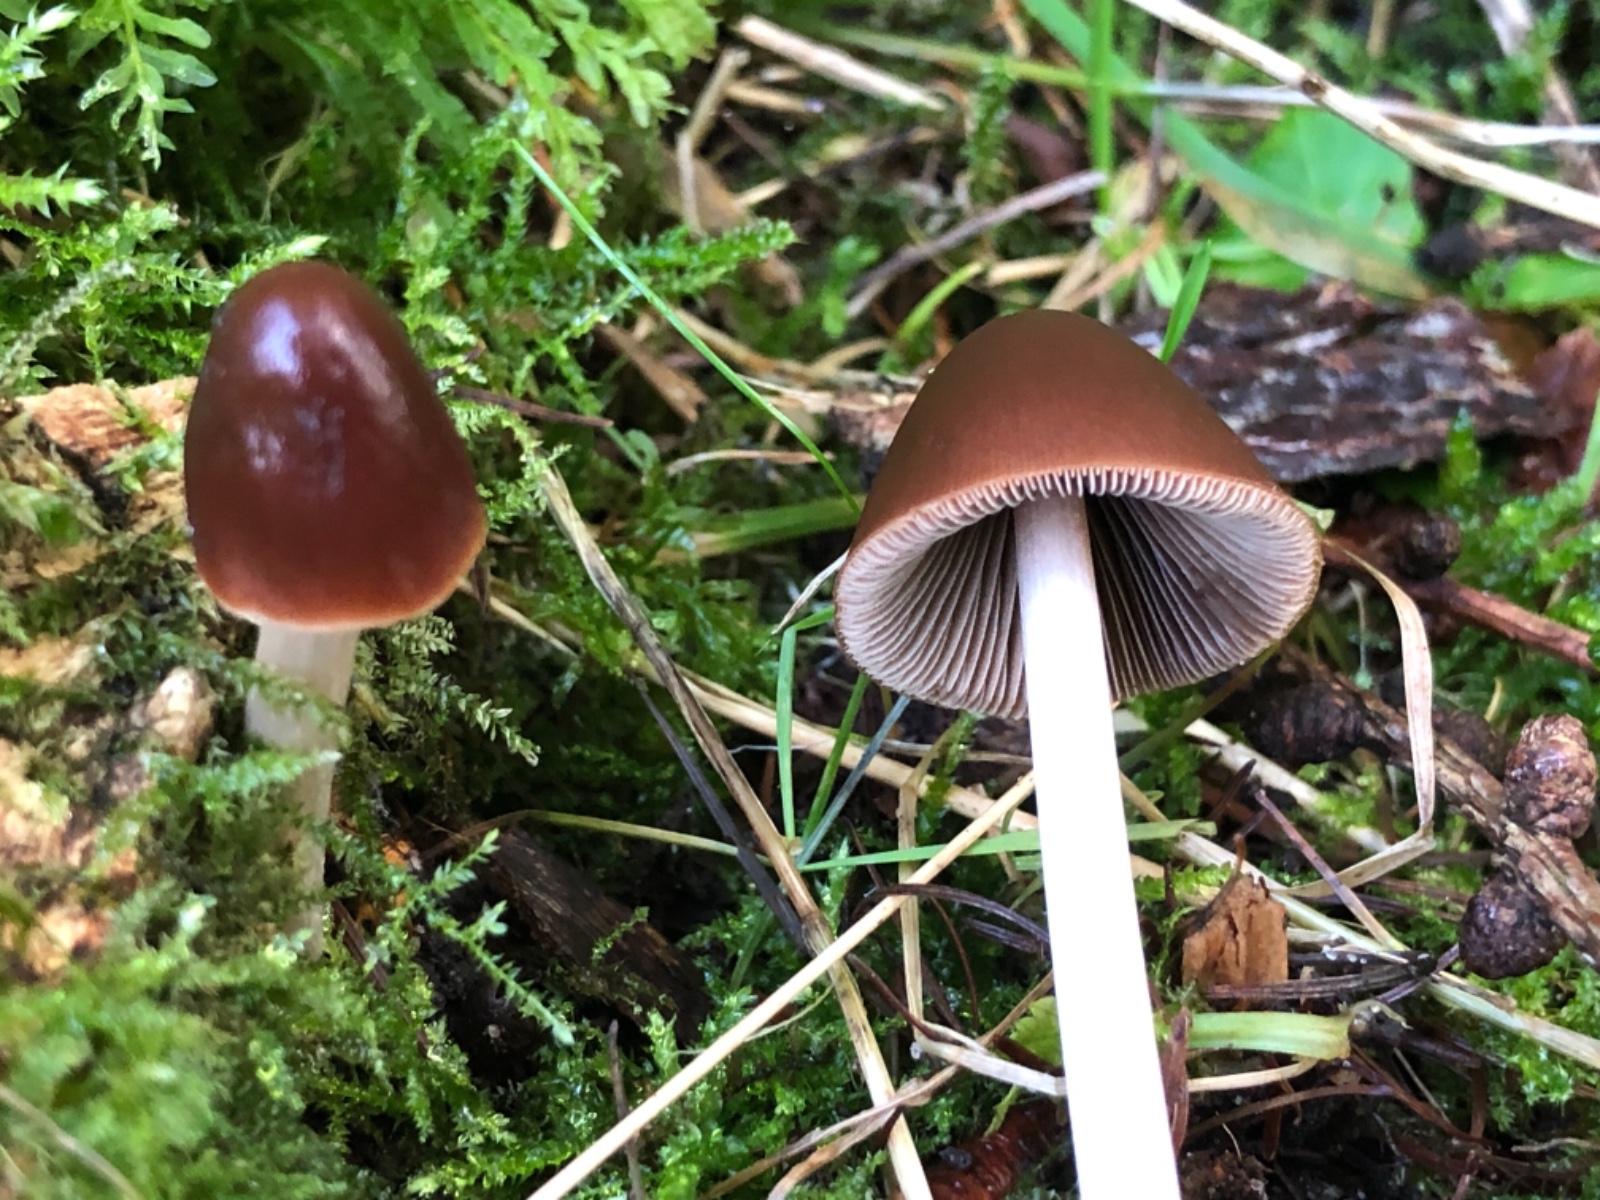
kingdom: Fungi
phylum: Basidiomycota
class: Agaricomycetes
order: Agaricales
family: Psathyrellaceae
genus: Parasola
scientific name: Parasola conopilea
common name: kegle-hjulhat
